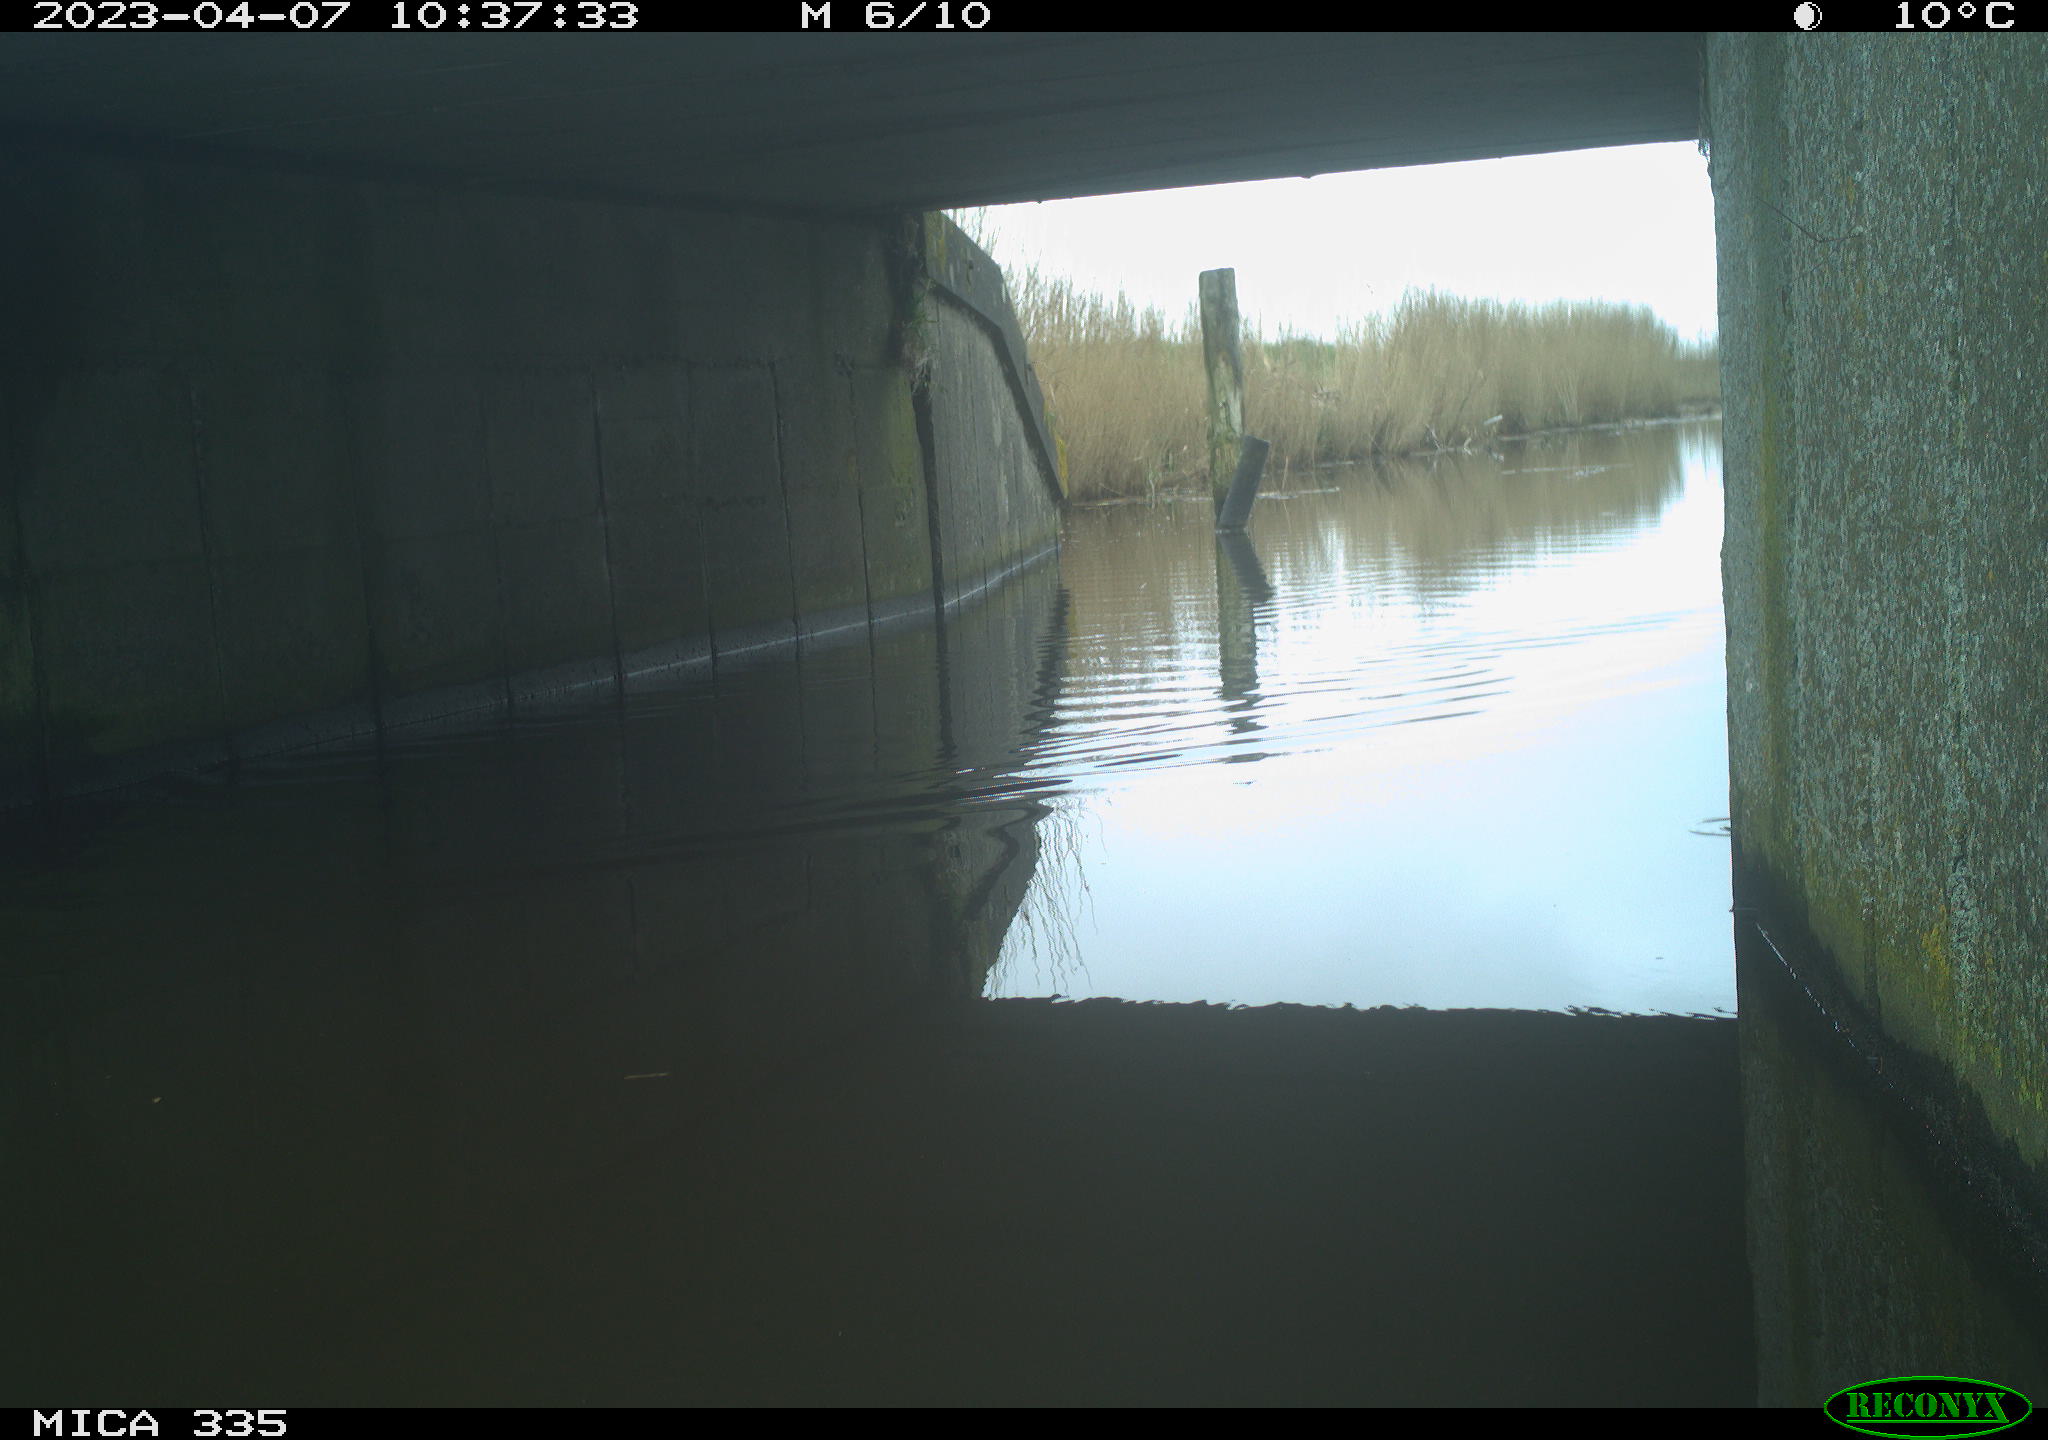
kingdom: Animalia
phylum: Chordata
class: Aves
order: Anseriformes
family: Anatidae
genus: Anas
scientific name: Anas
